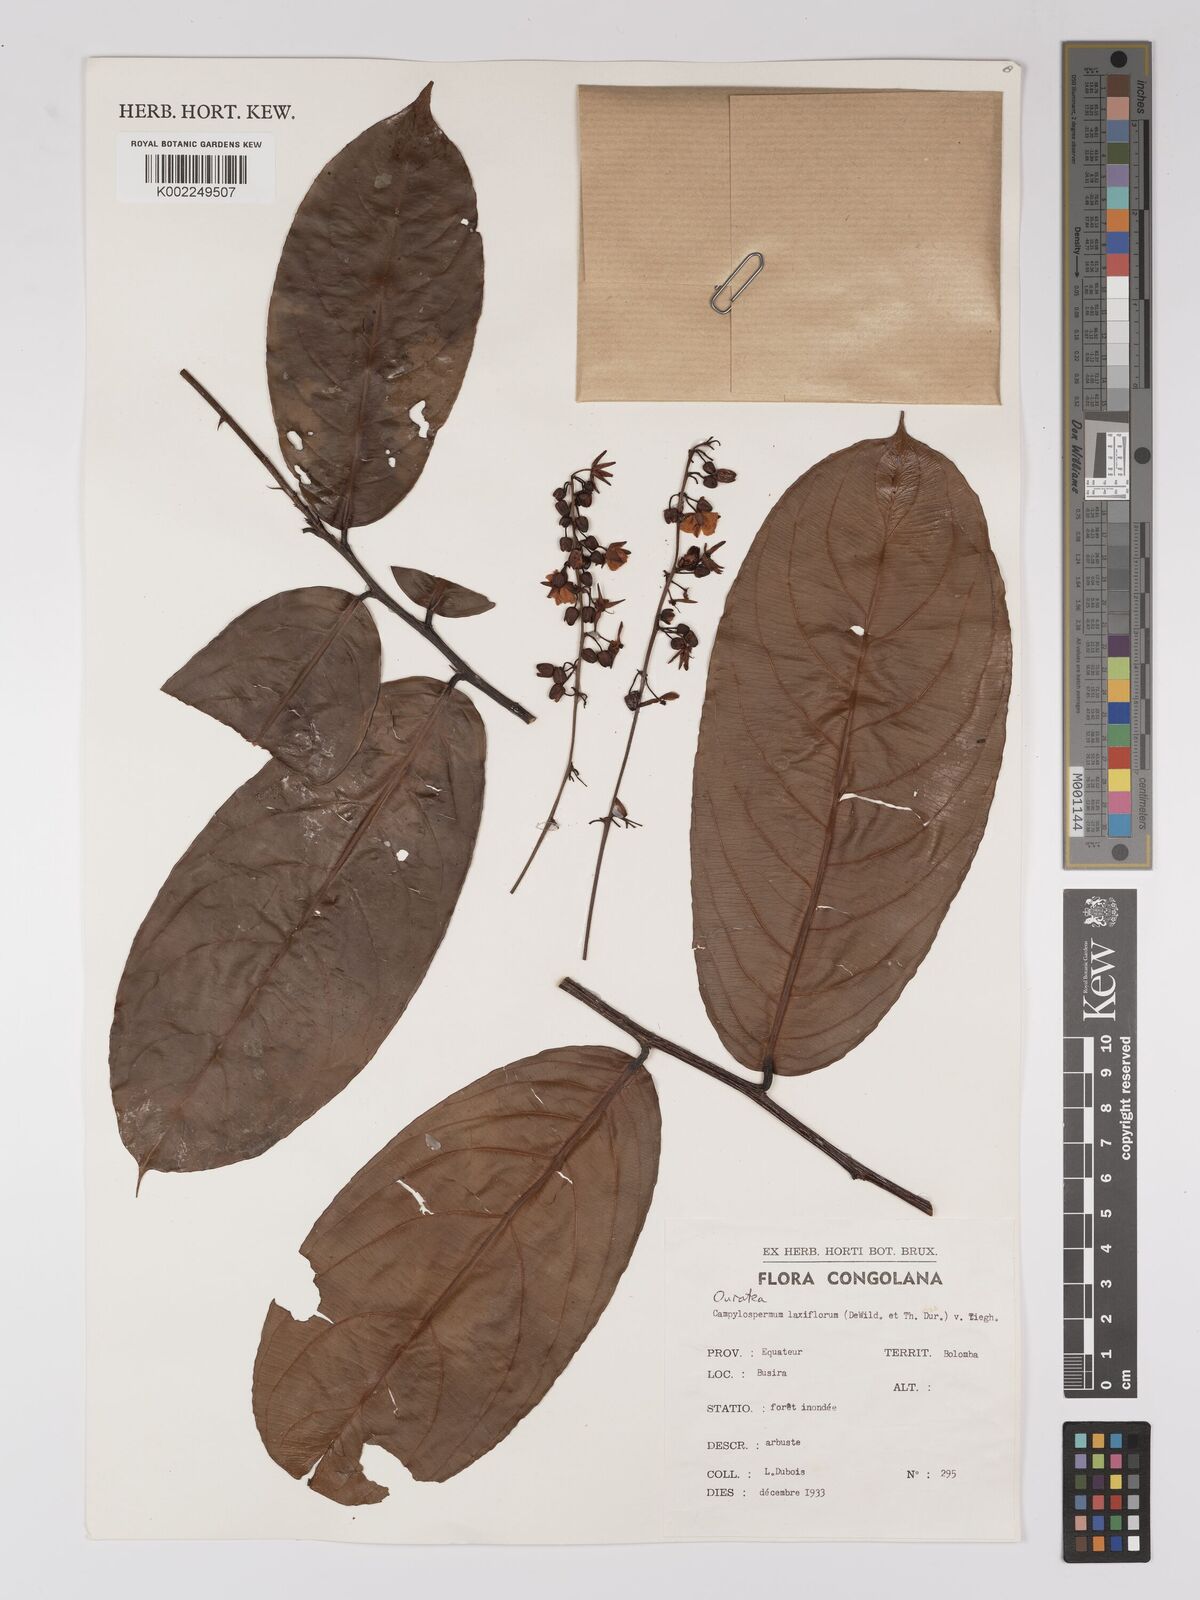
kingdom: Plantae
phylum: Tracheophyta
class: Magnoliopsida
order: Malpighiales
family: Ochnaceae
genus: Campylospermum
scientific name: Campylospermum laxiflorum
